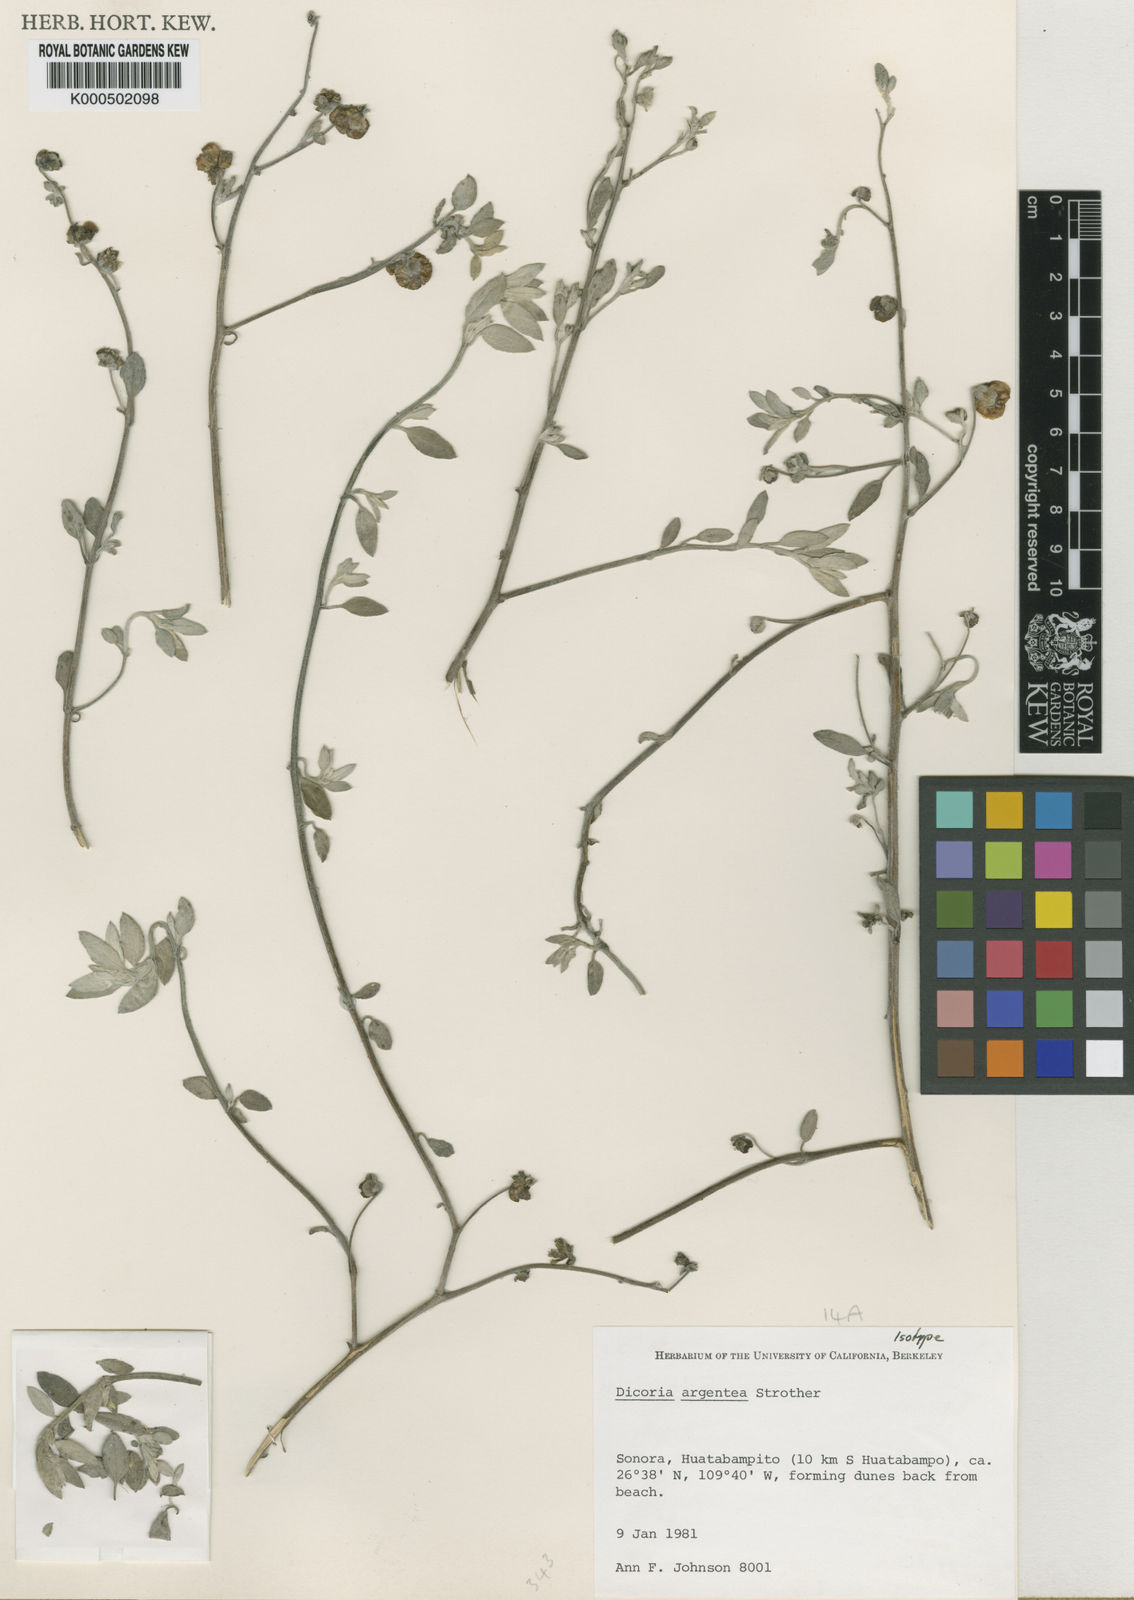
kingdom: Plantae
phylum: Tracheophyta
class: Magnoliopsida
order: Asterales
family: Asteraceae
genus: Dicoria
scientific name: Dicoria argentea
